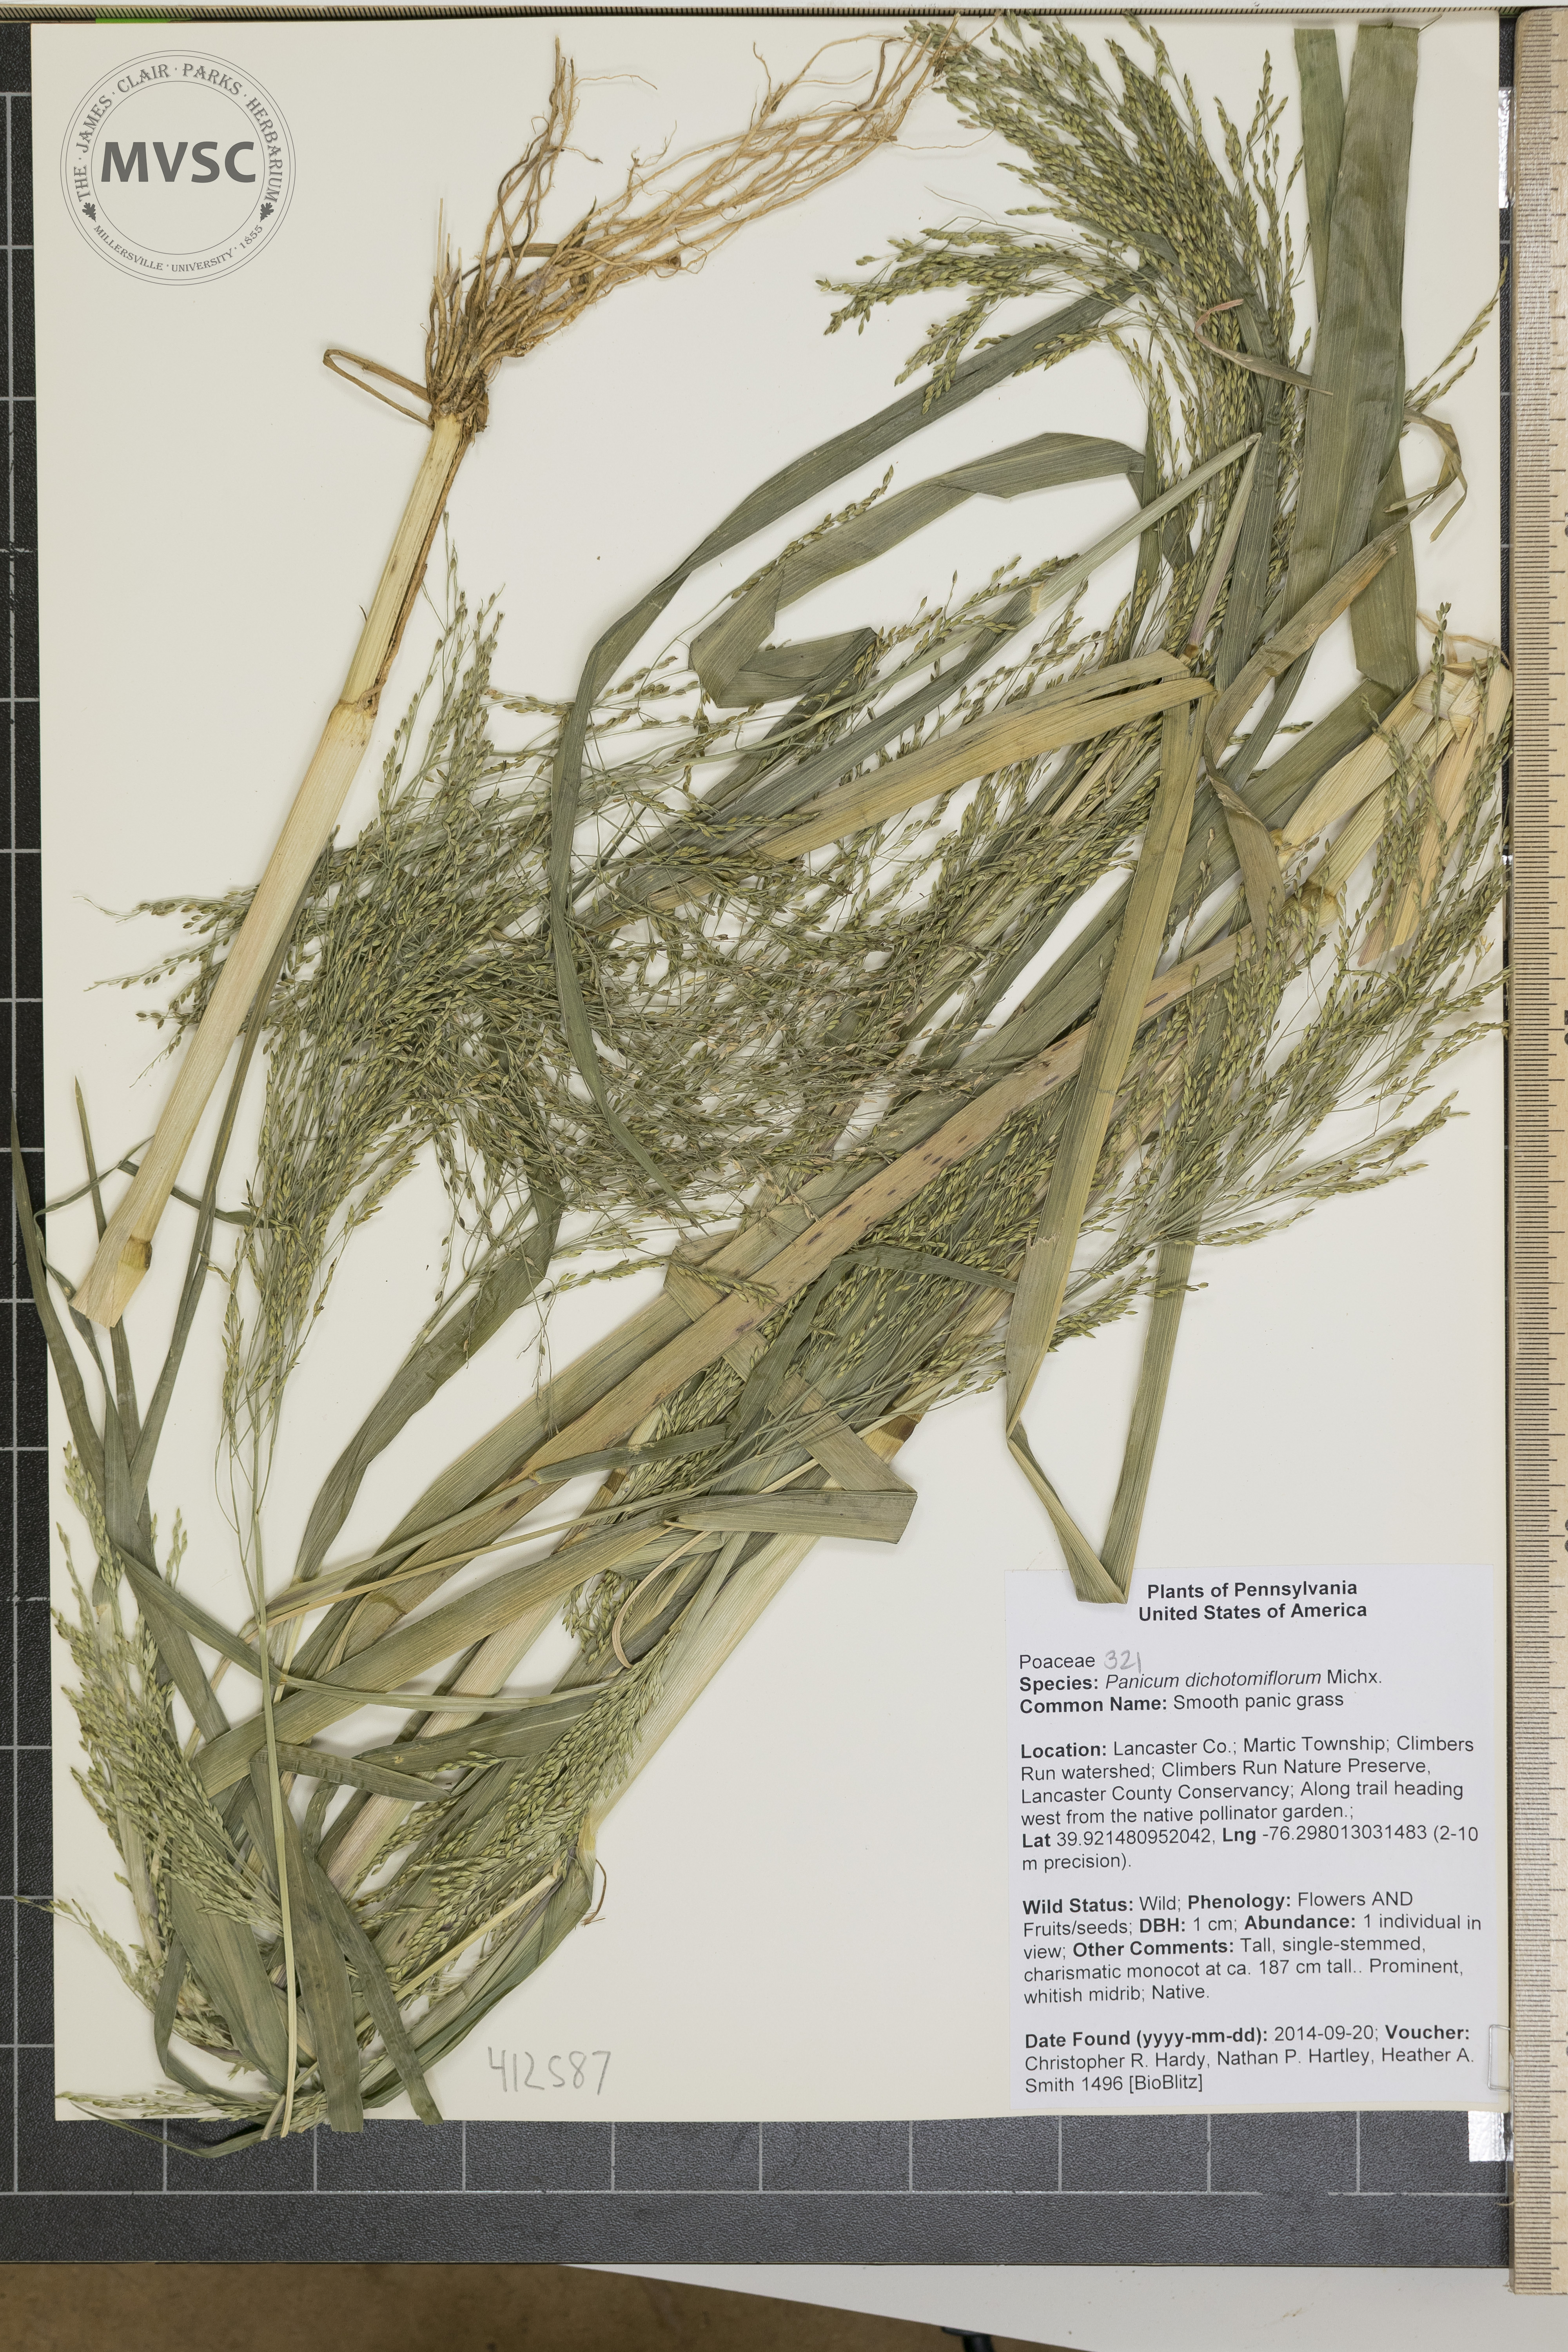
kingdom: Plantae
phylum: Tracheophyta
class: Liliopsida
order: Poales
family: Poaceae
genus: Panicum
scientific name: Panicum dichotomiflorum
